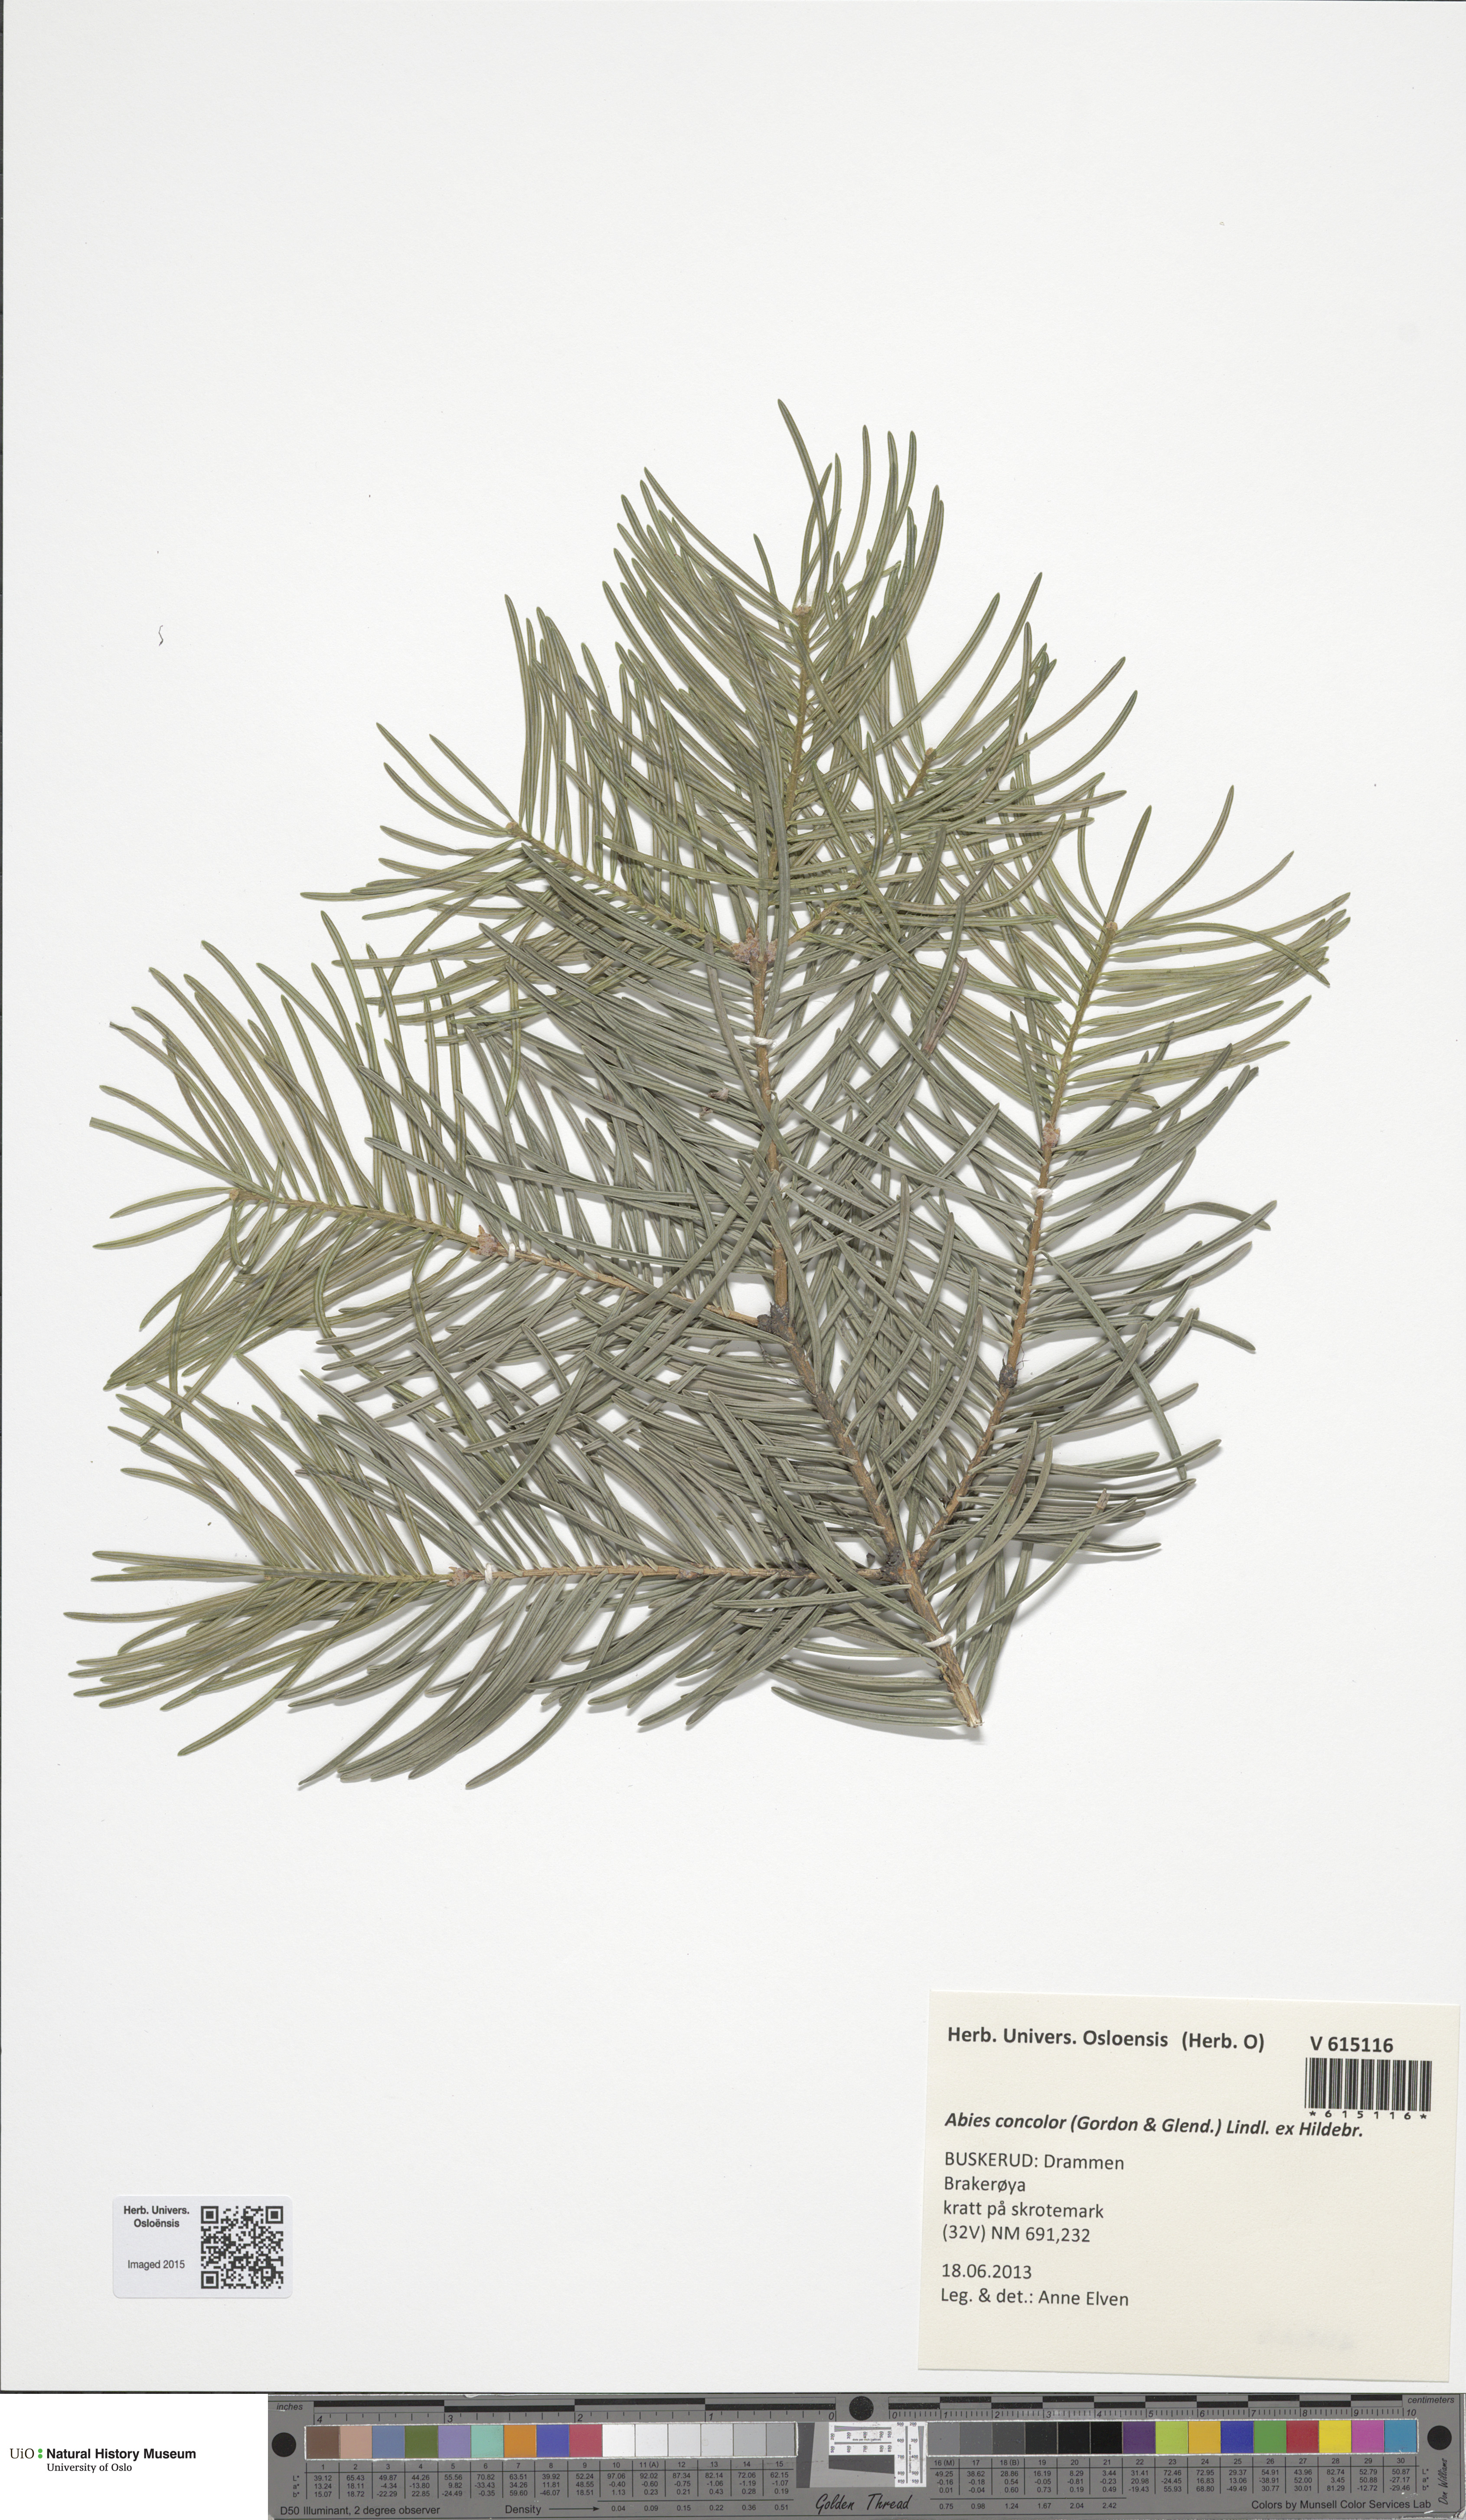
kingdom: Plantae
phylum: Tracheophyta
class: Pinopsida
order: Pinales
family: Pinaceae
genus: Abies
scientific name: Abies concolor
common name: Colorado fir
